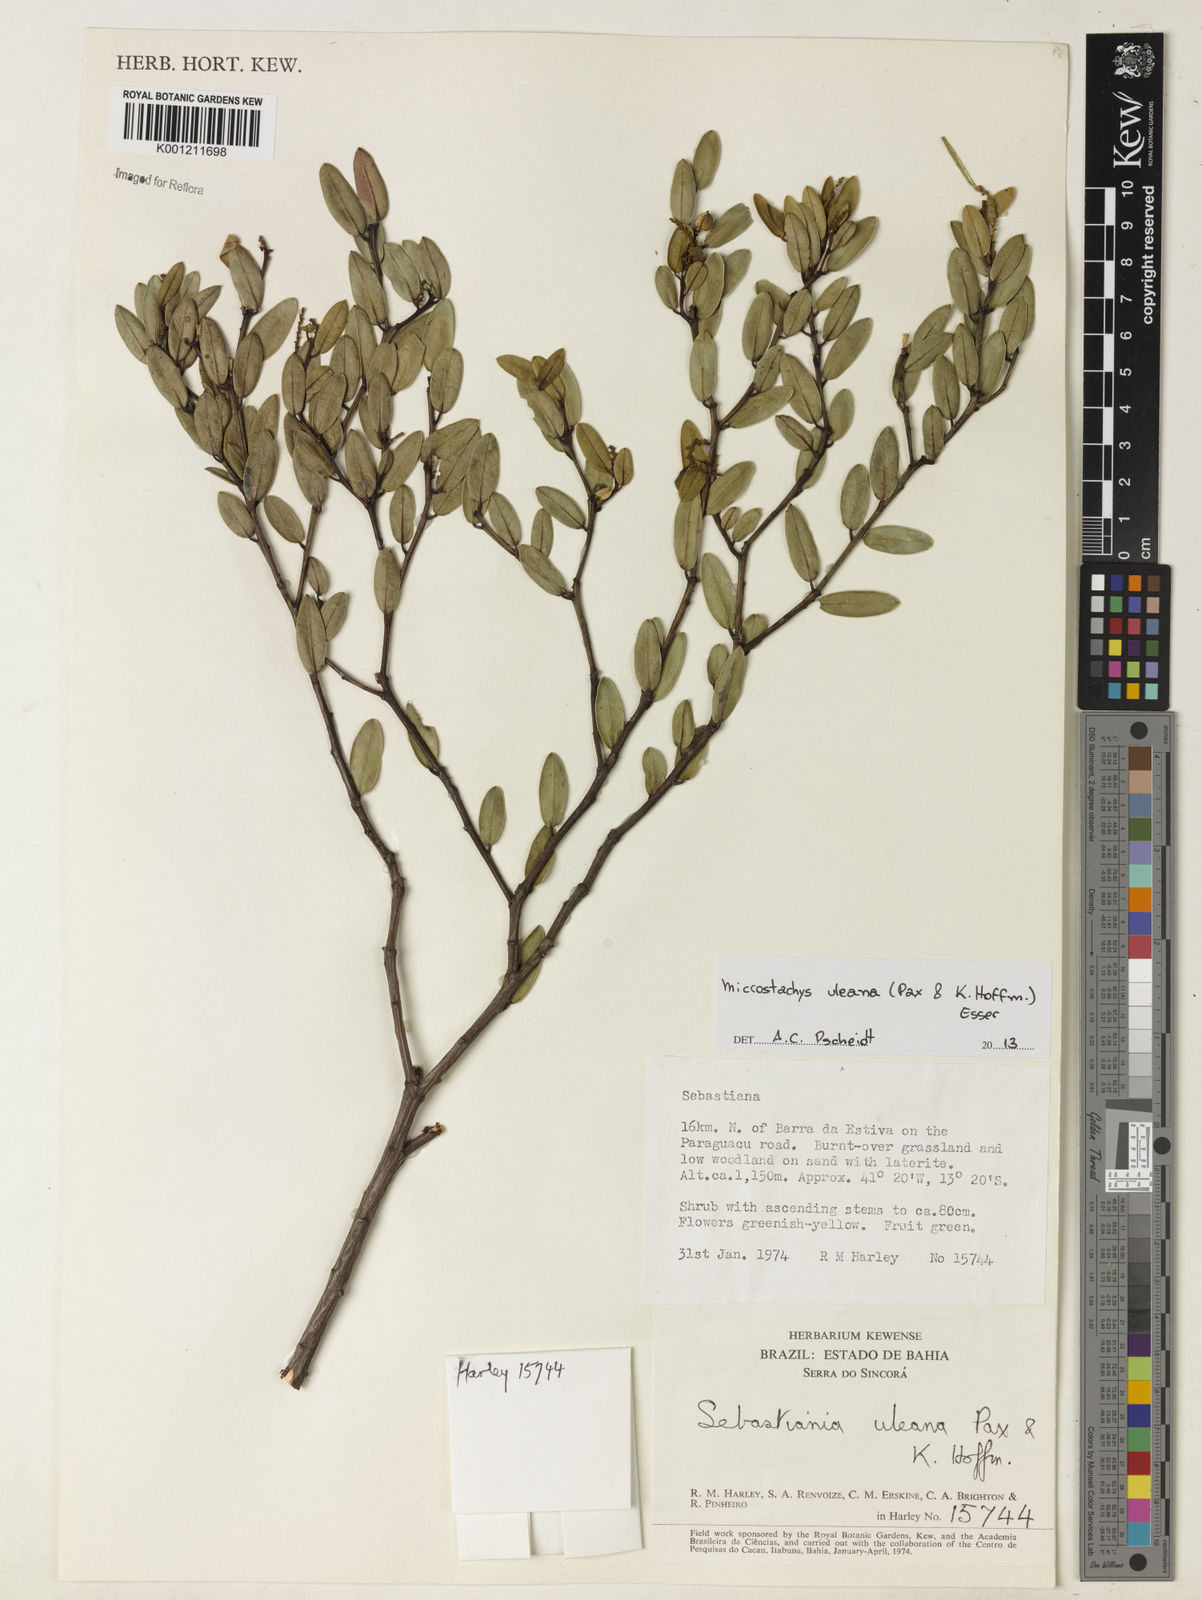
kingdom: Plantae
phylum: Tracheophyta
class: Magnoliopsida
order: Malpighiales
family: Euphorbiaceae
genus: Microstachys
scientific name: Microstachys uleana
